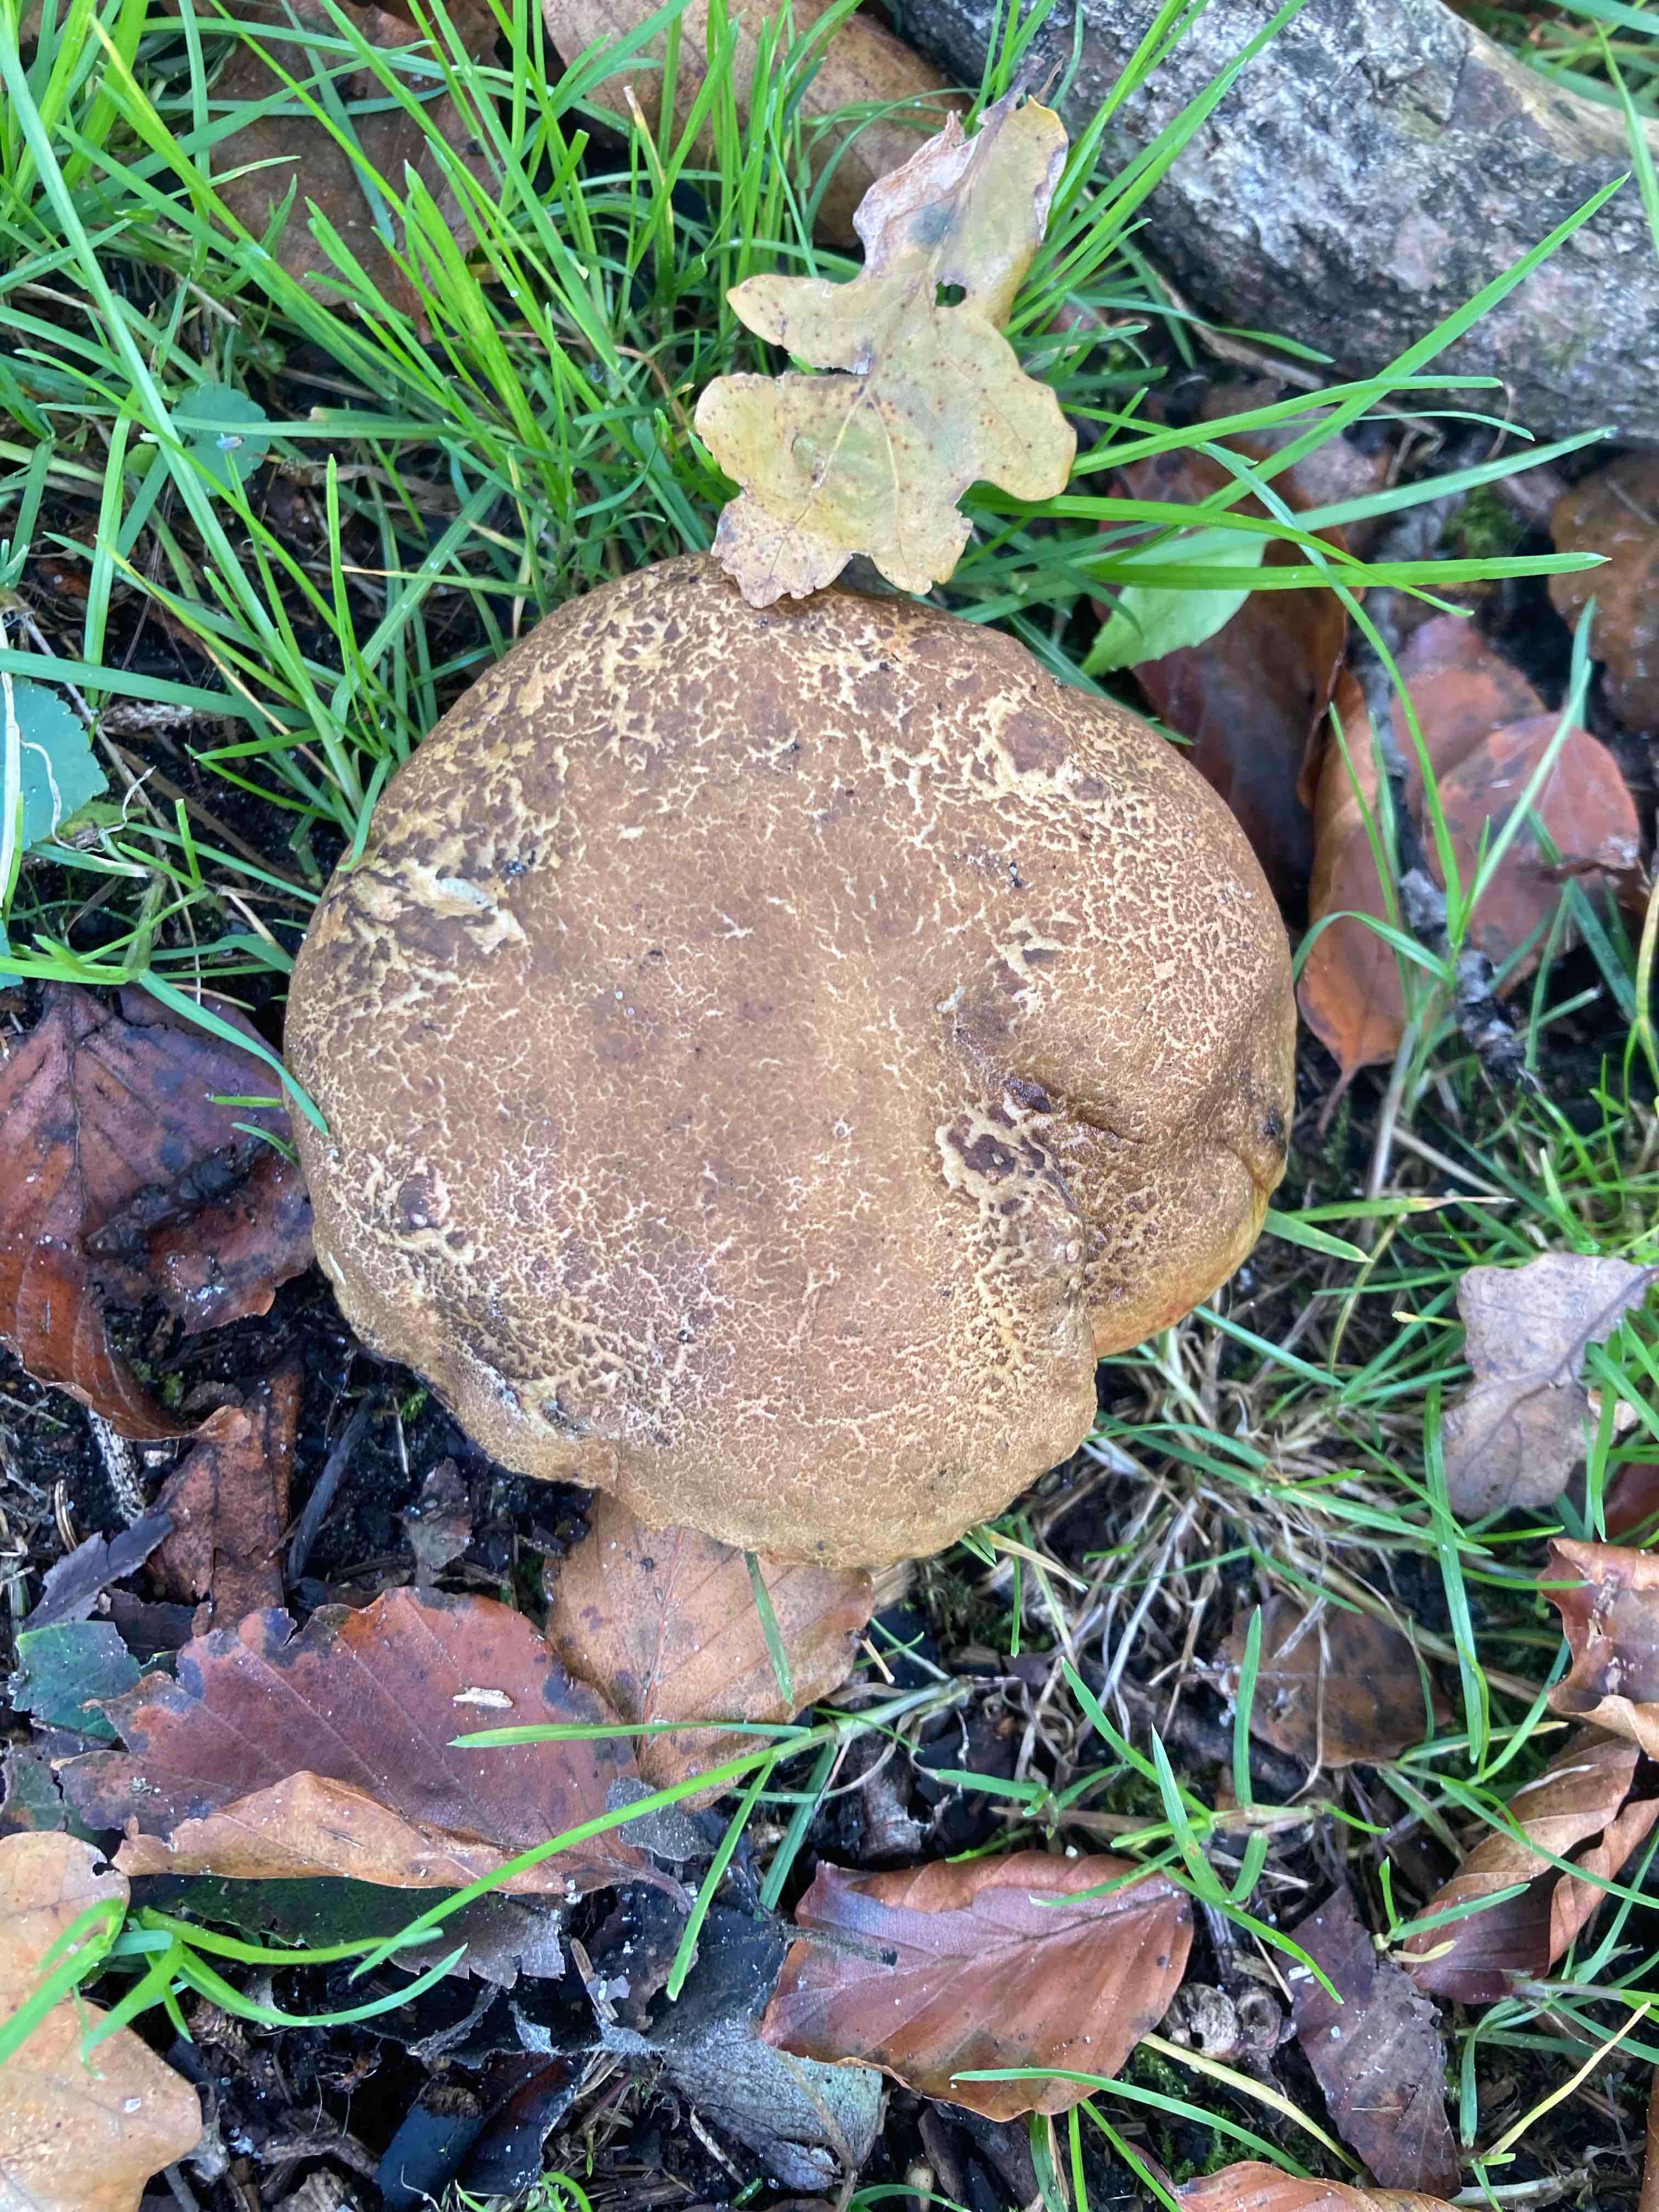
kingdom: Fungi
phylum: Basidiomycota
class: Agaricomycetes
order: Boletales
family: Boletaceae
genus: Xerocomellus
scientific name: Xerocomellus
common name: dværgrørhat
